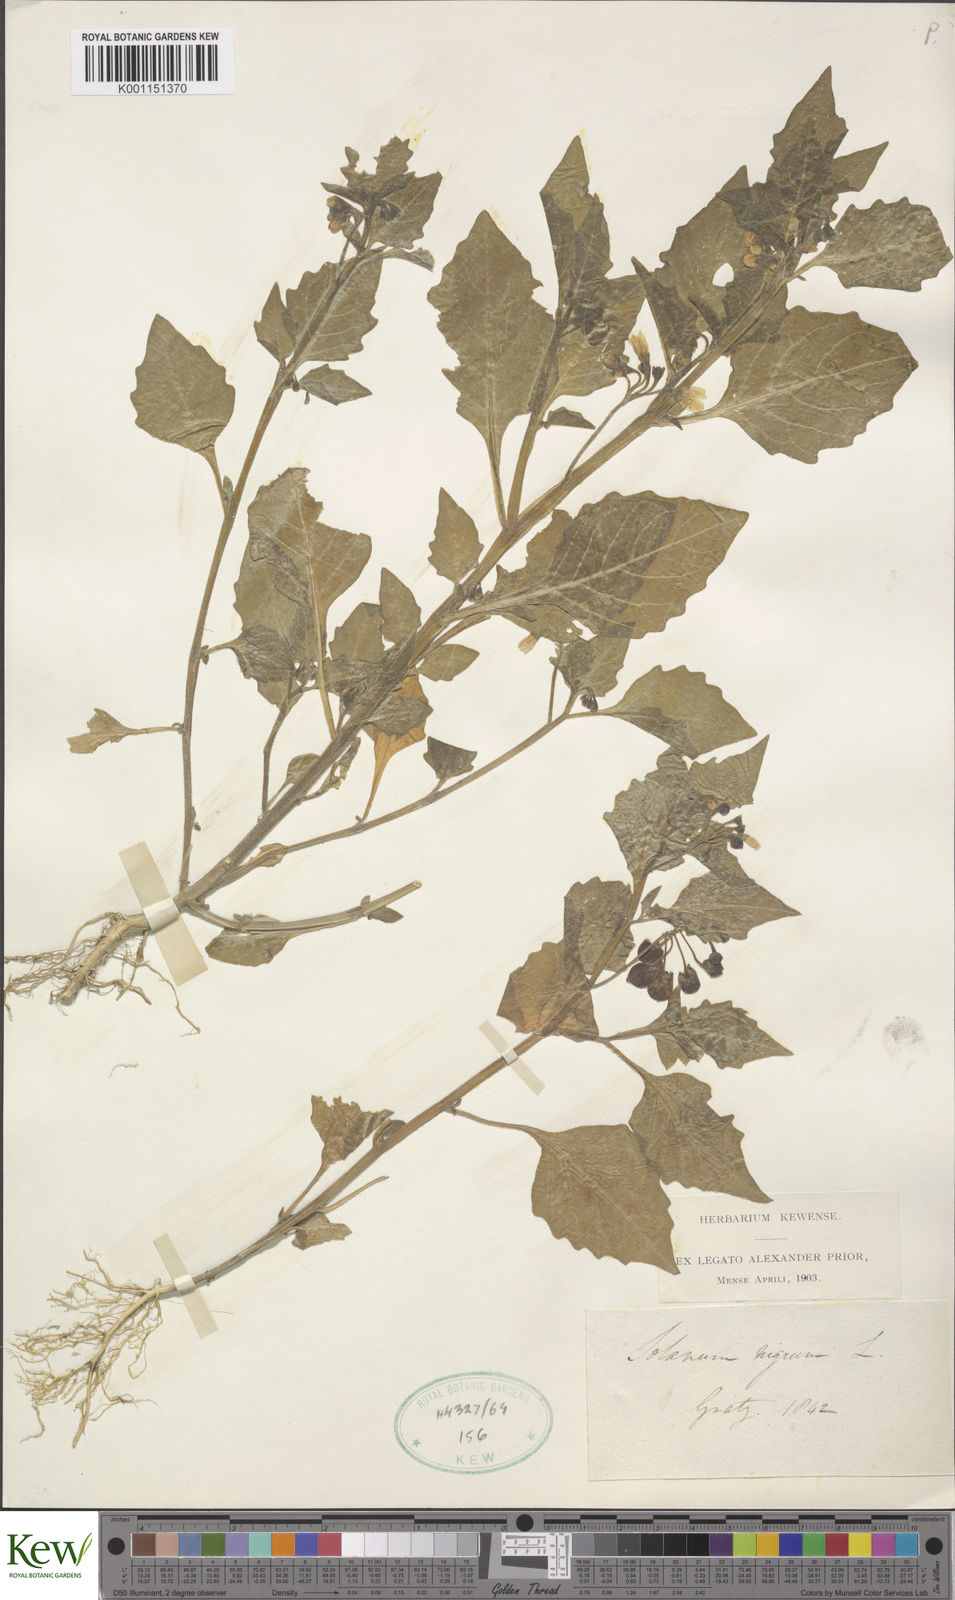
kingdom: Plantae
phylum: Tracheophyta
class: Magnoliopsida
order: Solanales
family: Solanaceae
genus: Solanum
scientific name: Solanum nigrum
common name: Black nightshade
